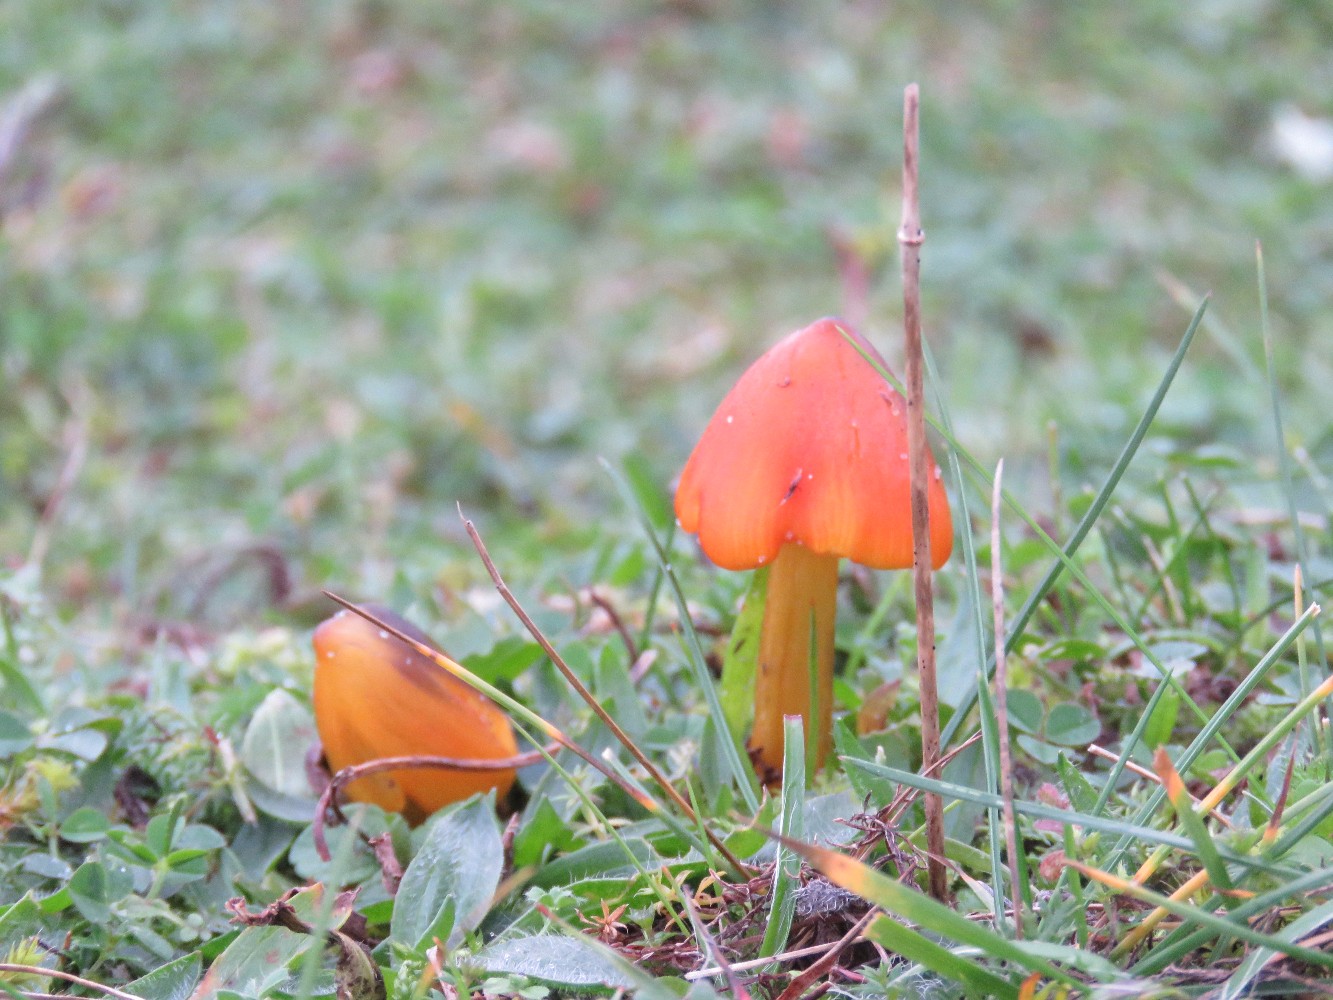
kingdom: Fungi
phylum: Basidiomycota
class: Agaricomycetes
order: Agaricales
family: Hygrophoraceae
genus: Hygrocybe
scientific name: Hygrocybe conica
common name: kegle-vokshat
